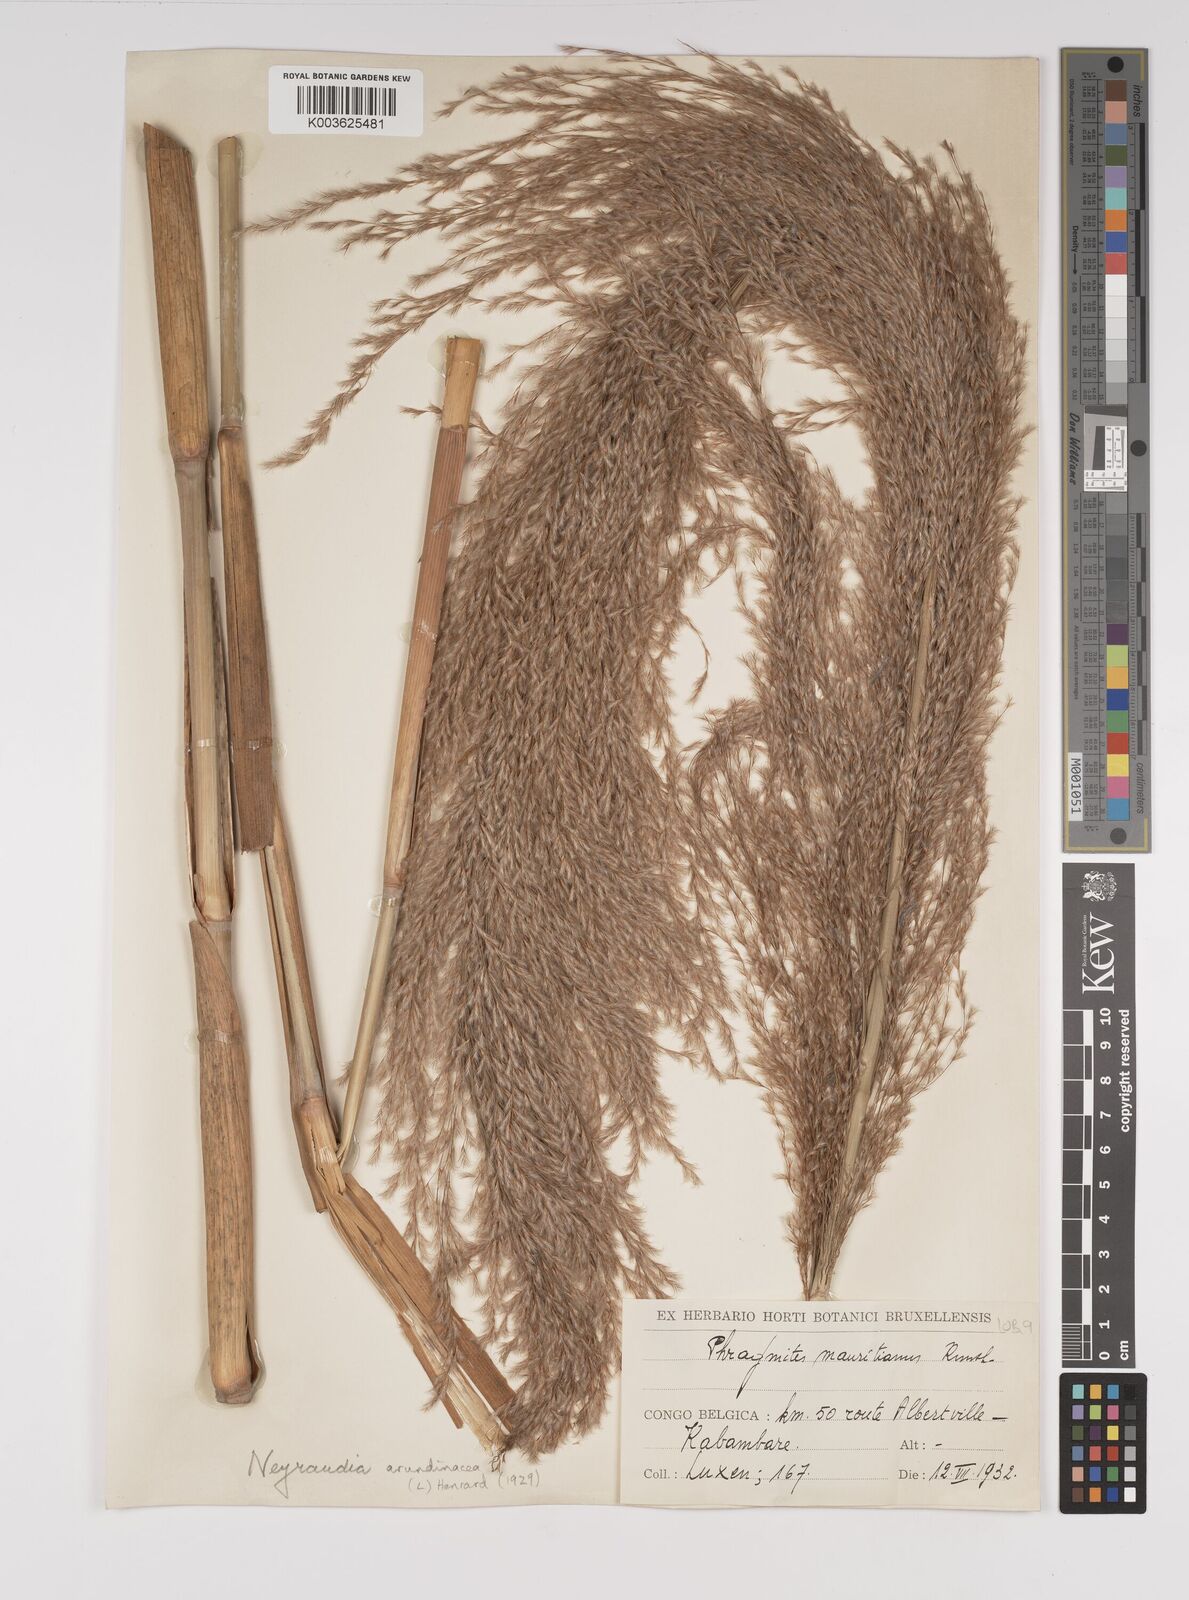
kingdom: Plantae
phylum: Tracheophyta
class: Liliopsida
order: Poales
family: Poaceae
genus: Neyraudia
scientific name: Neyraudia arundinacea
